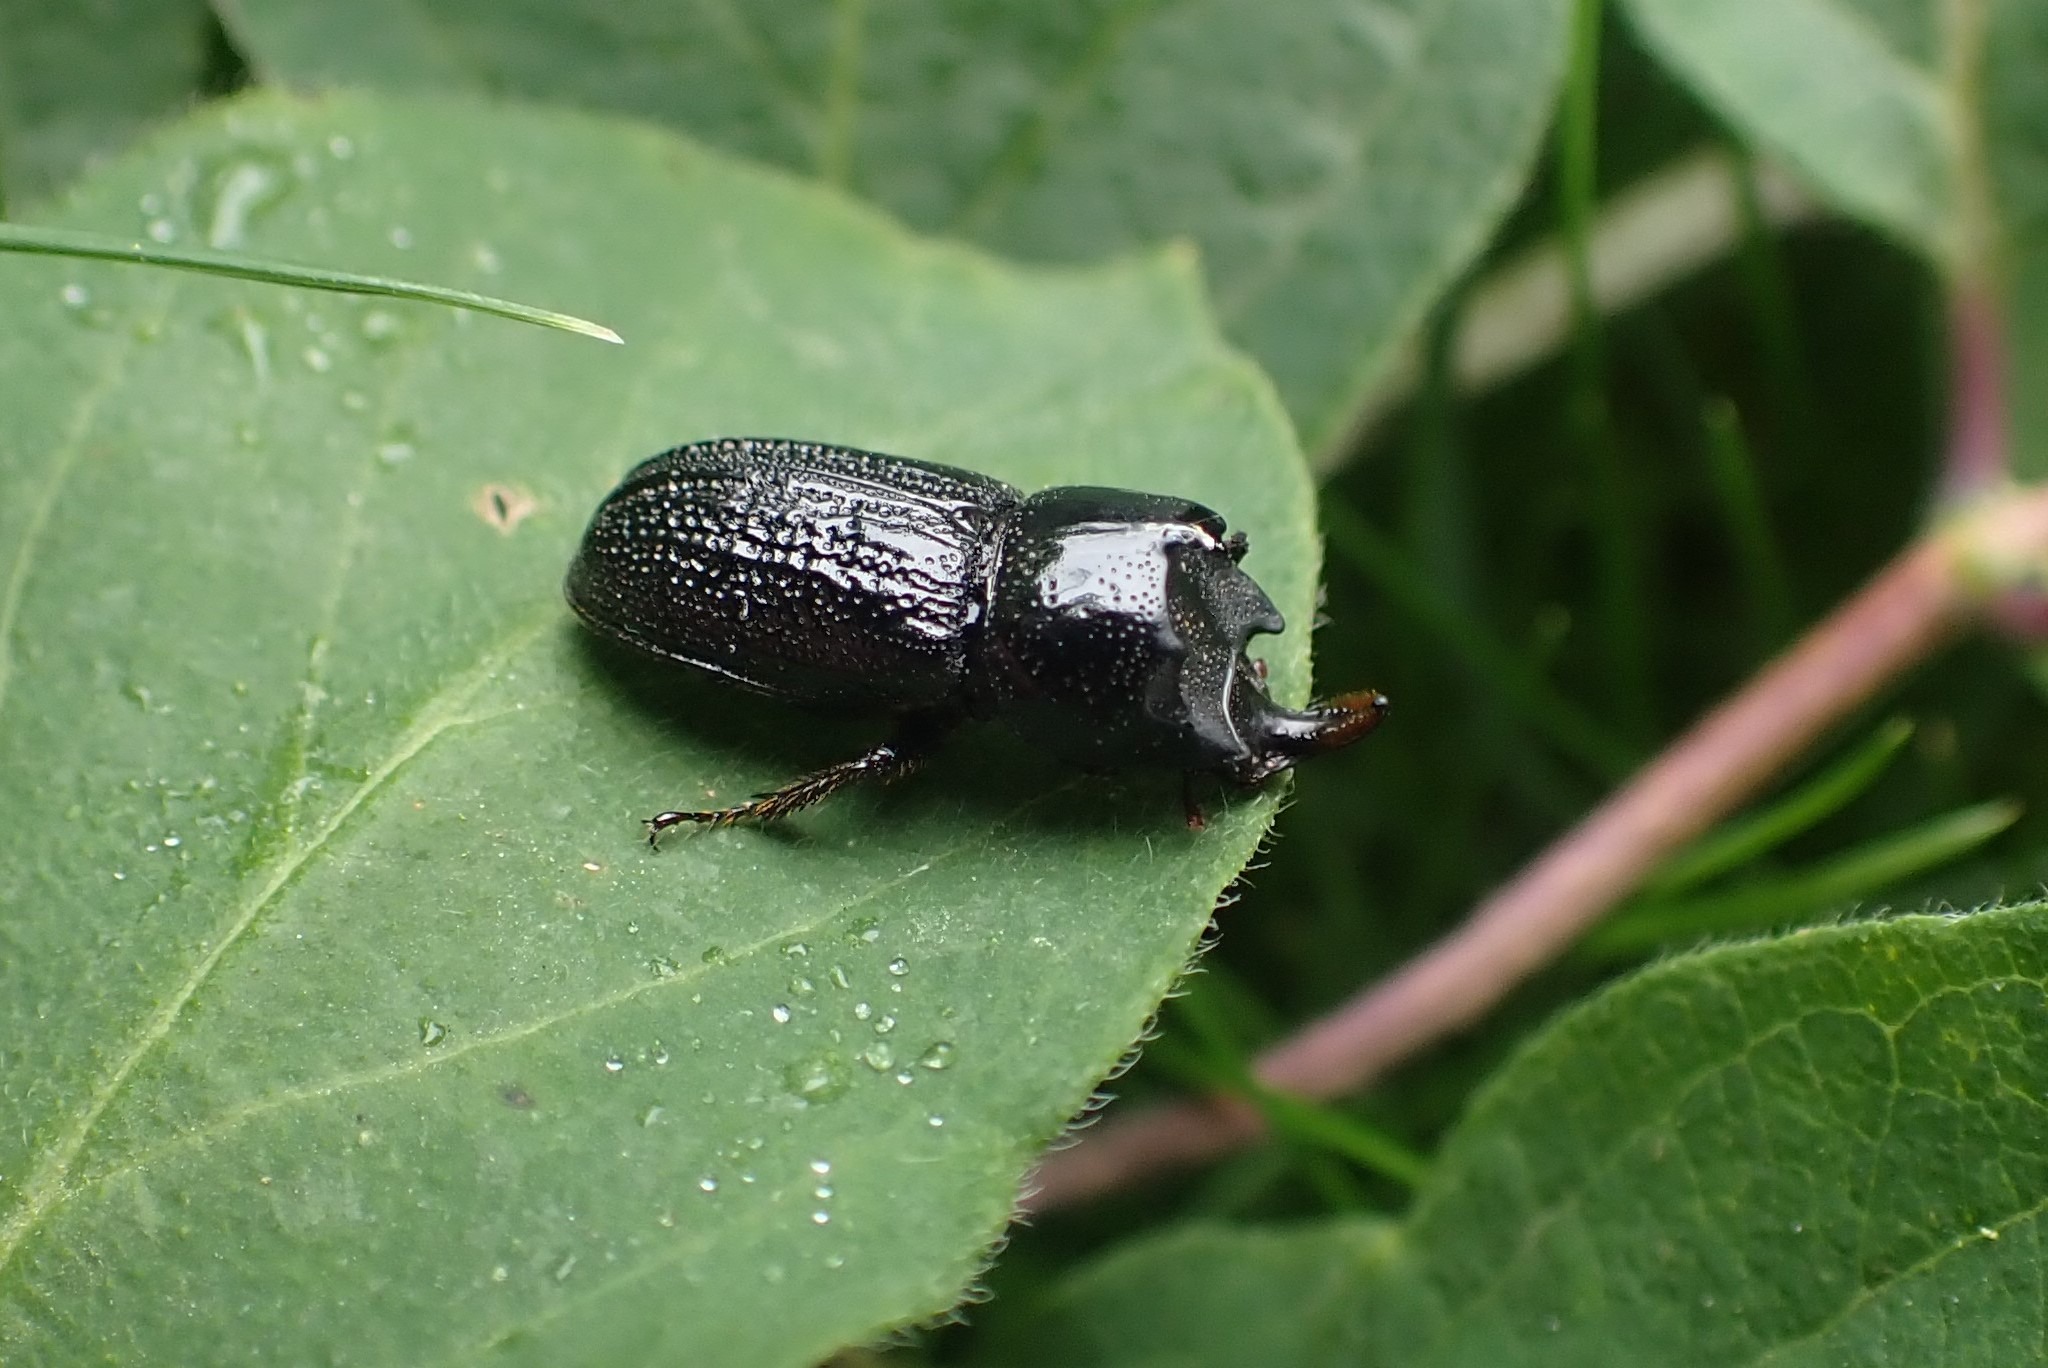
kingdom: Animalia
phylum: Arthropoda
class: Insecta
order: Coleoptera
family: Lucanidae
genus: Sinodendron
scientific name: Sinodendron cylindricum
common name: Valsehjort
